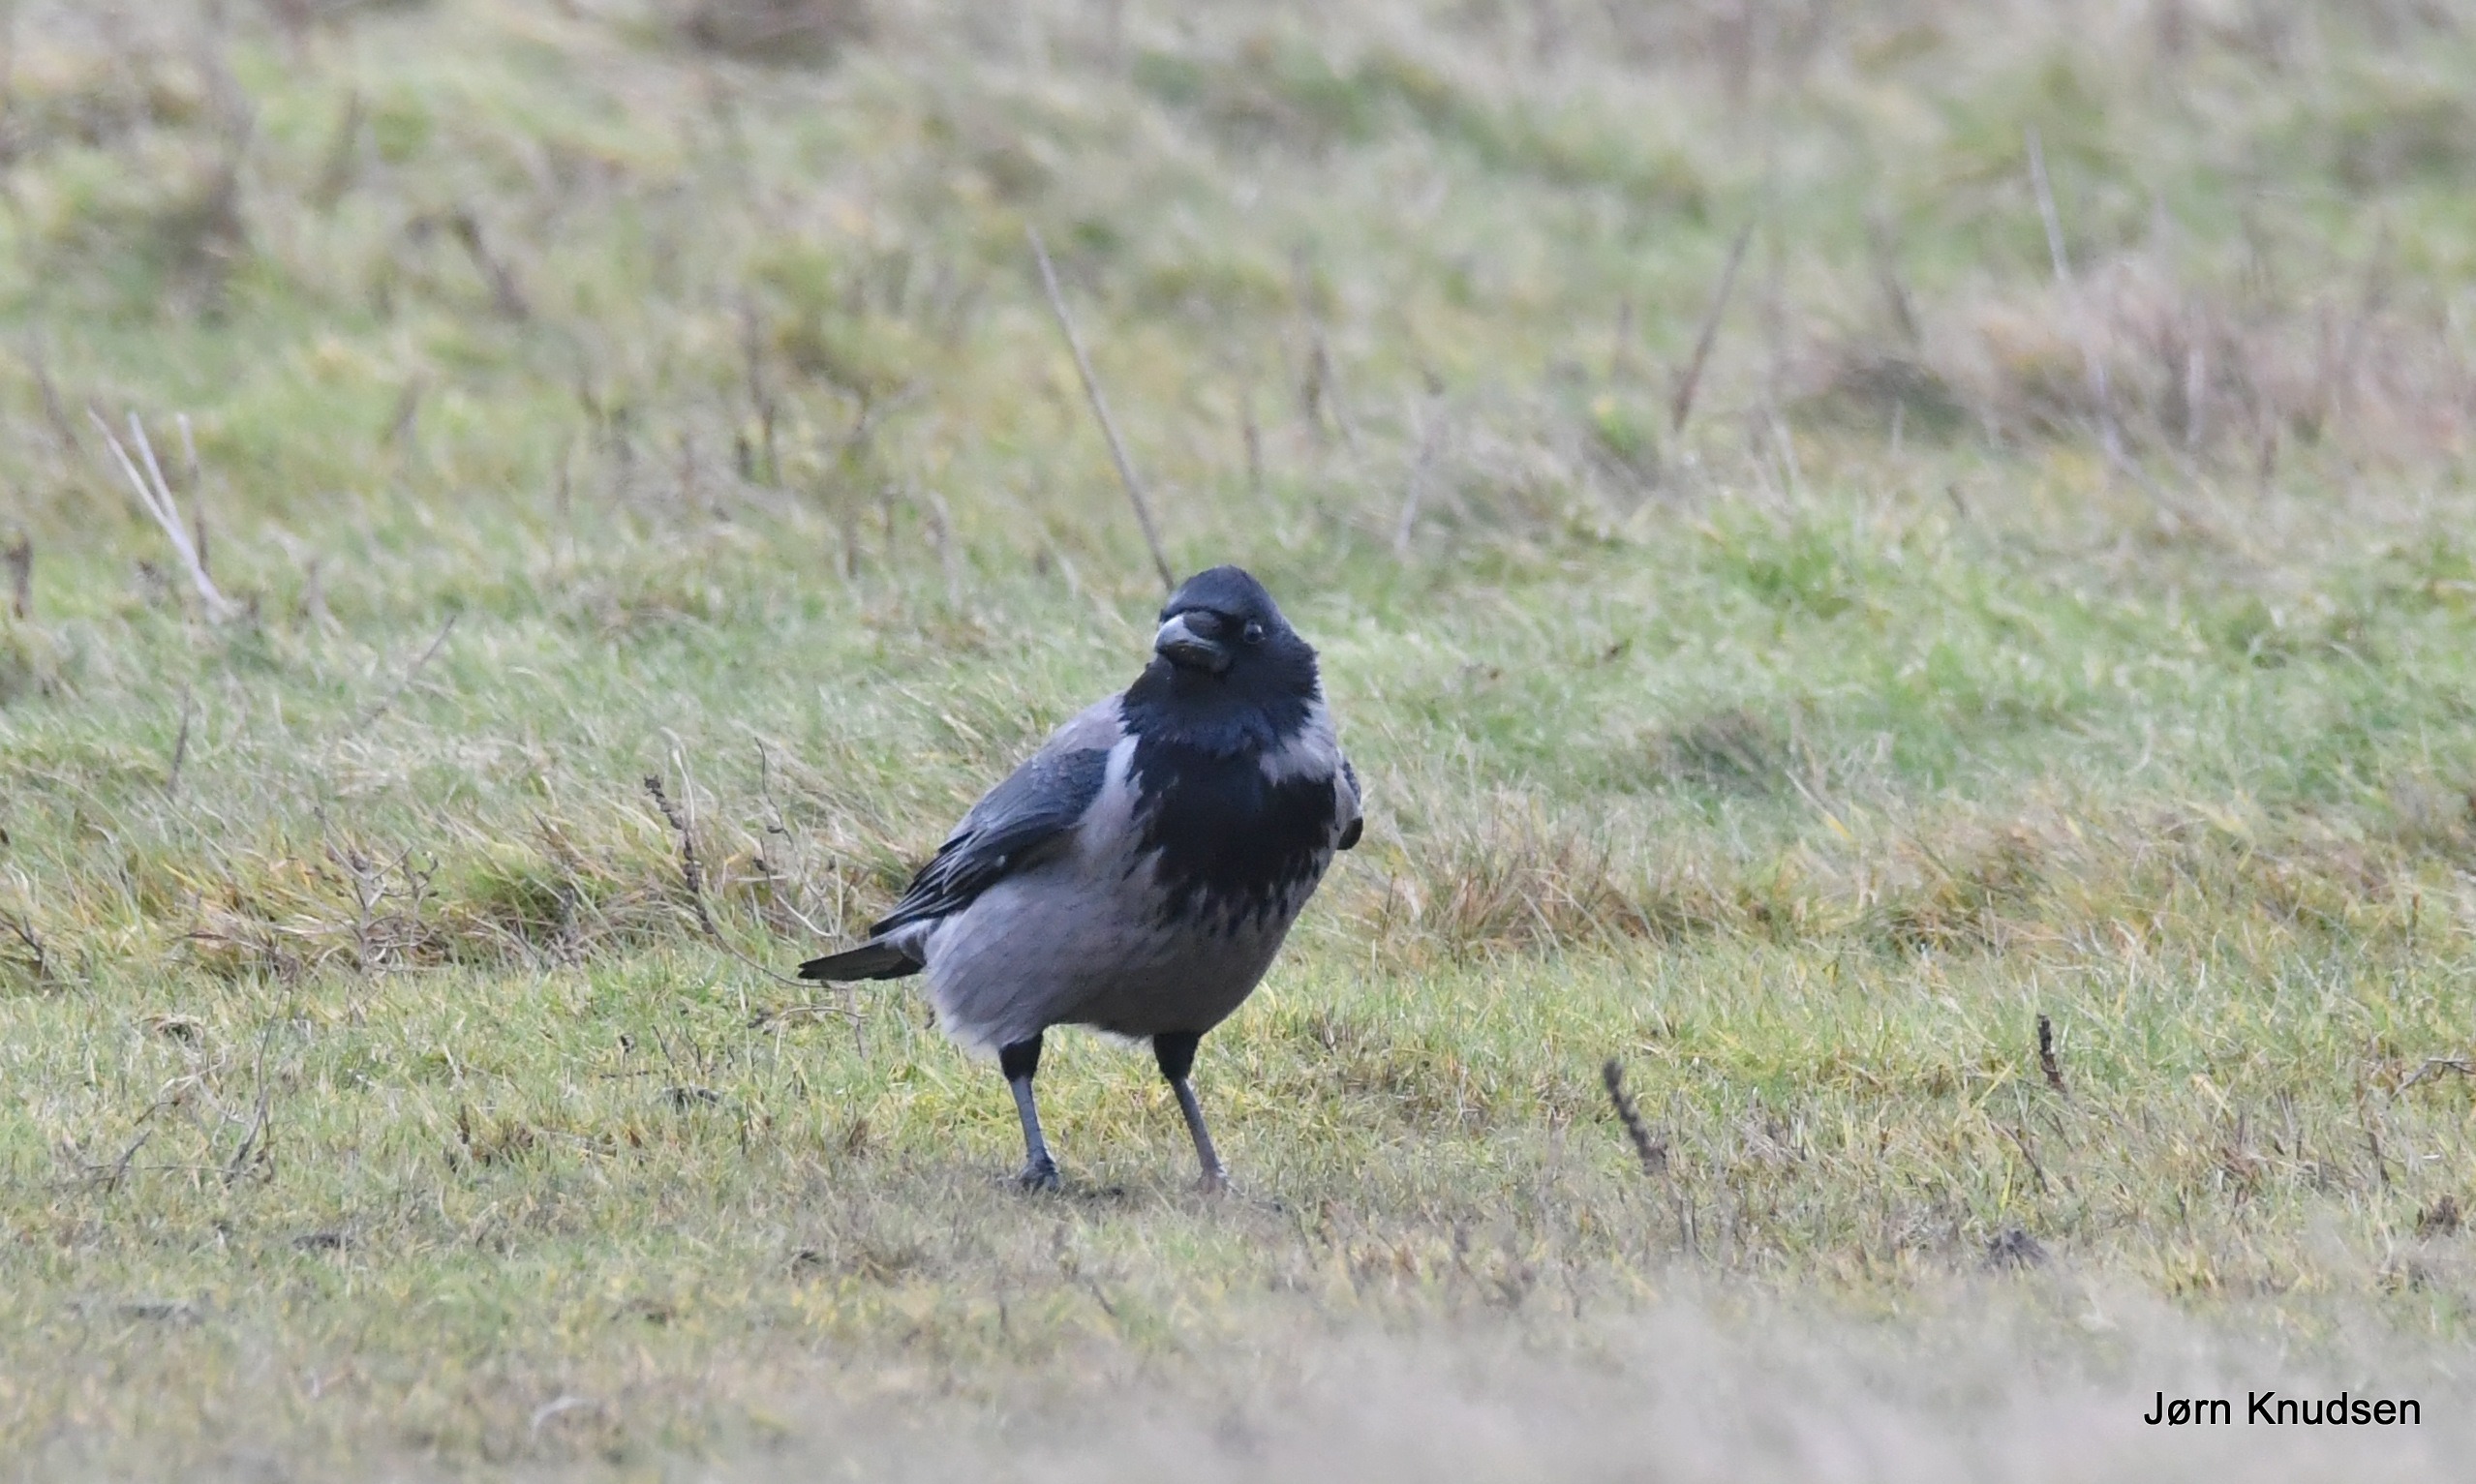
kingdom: Animalia
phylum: Chordata
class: Aves
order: Passeriformes
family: Corvidae
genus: Corvus
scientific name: Corvus cornix
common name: Gråkrage
